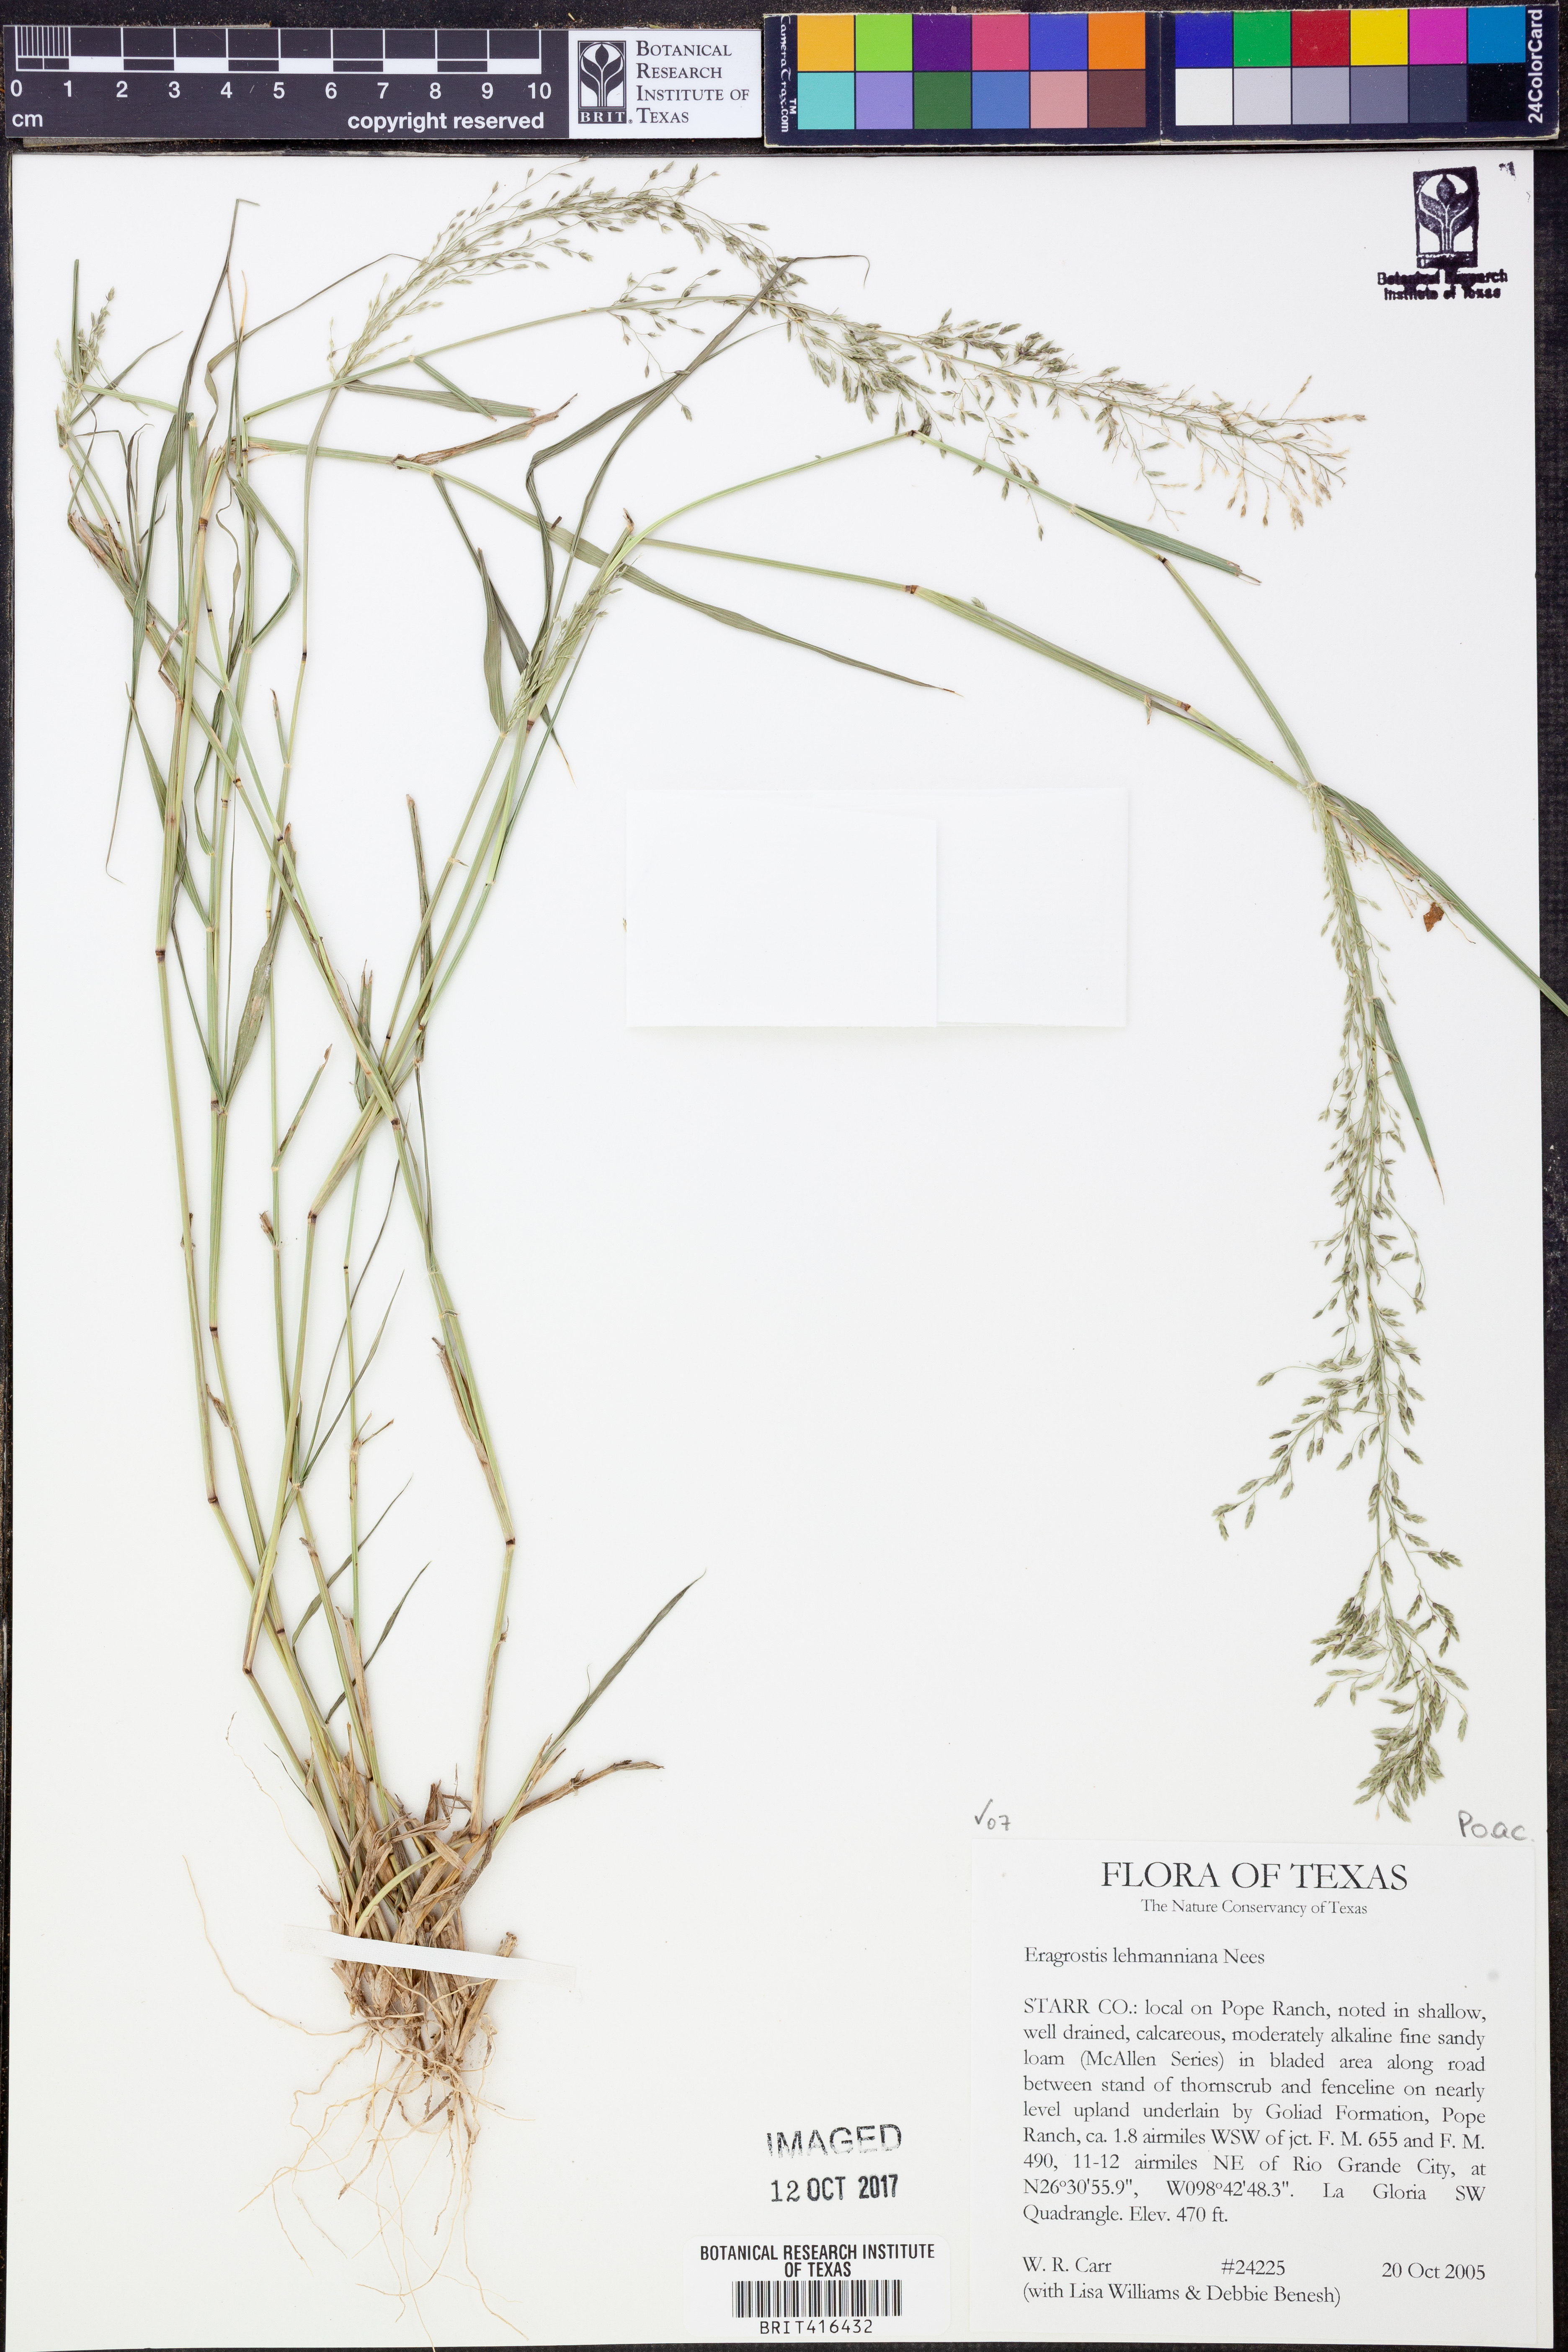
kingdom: Plantae
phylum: Tracheophyta
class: Liliopsida
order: Poales
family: Poaceae
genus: Eragrostis
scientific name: Eragrostis lehmanniana
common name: Lehmann lovegrass
